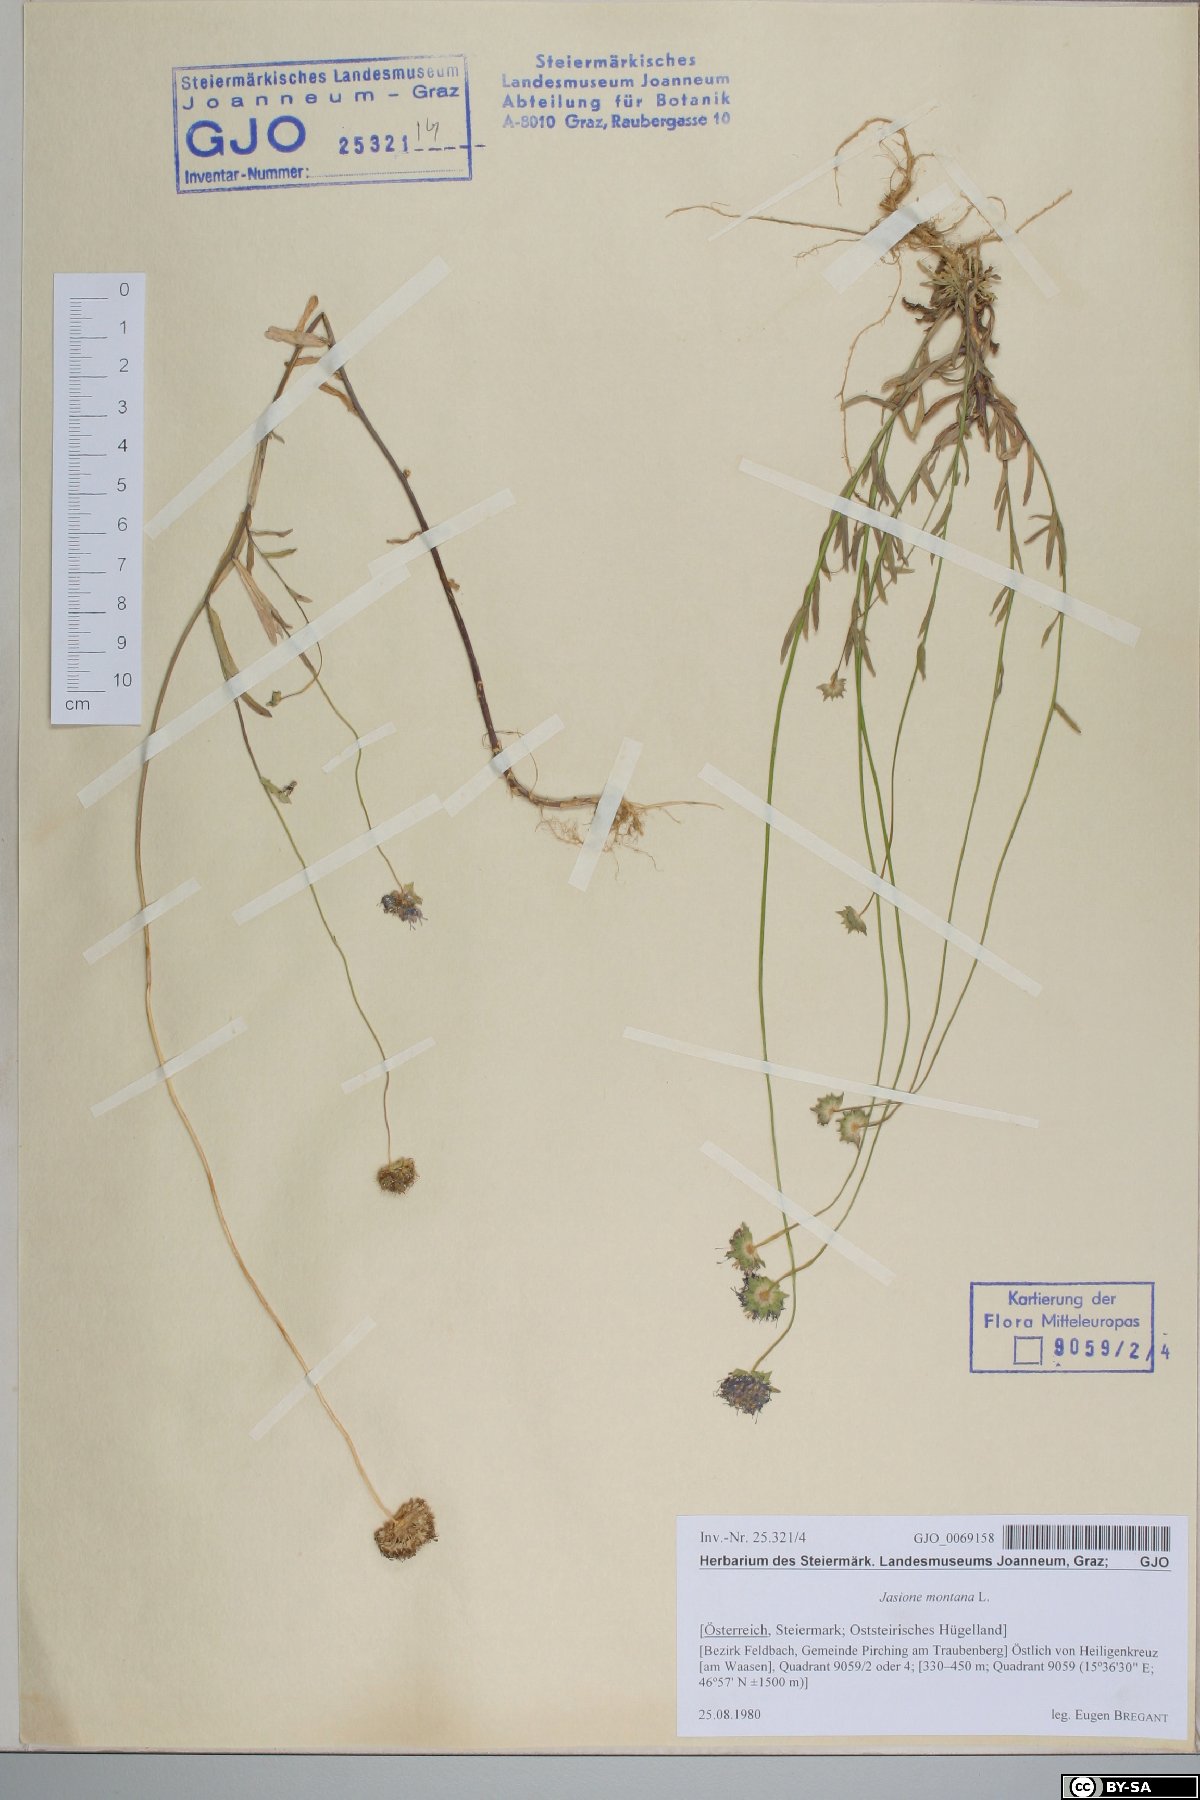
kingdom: Plantae
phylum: Tracheophyta
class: Magnoliopsida
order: Asterales
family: Campanulaceae
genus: Jasione
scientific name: Jasione montana
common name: Sheep's-bit
